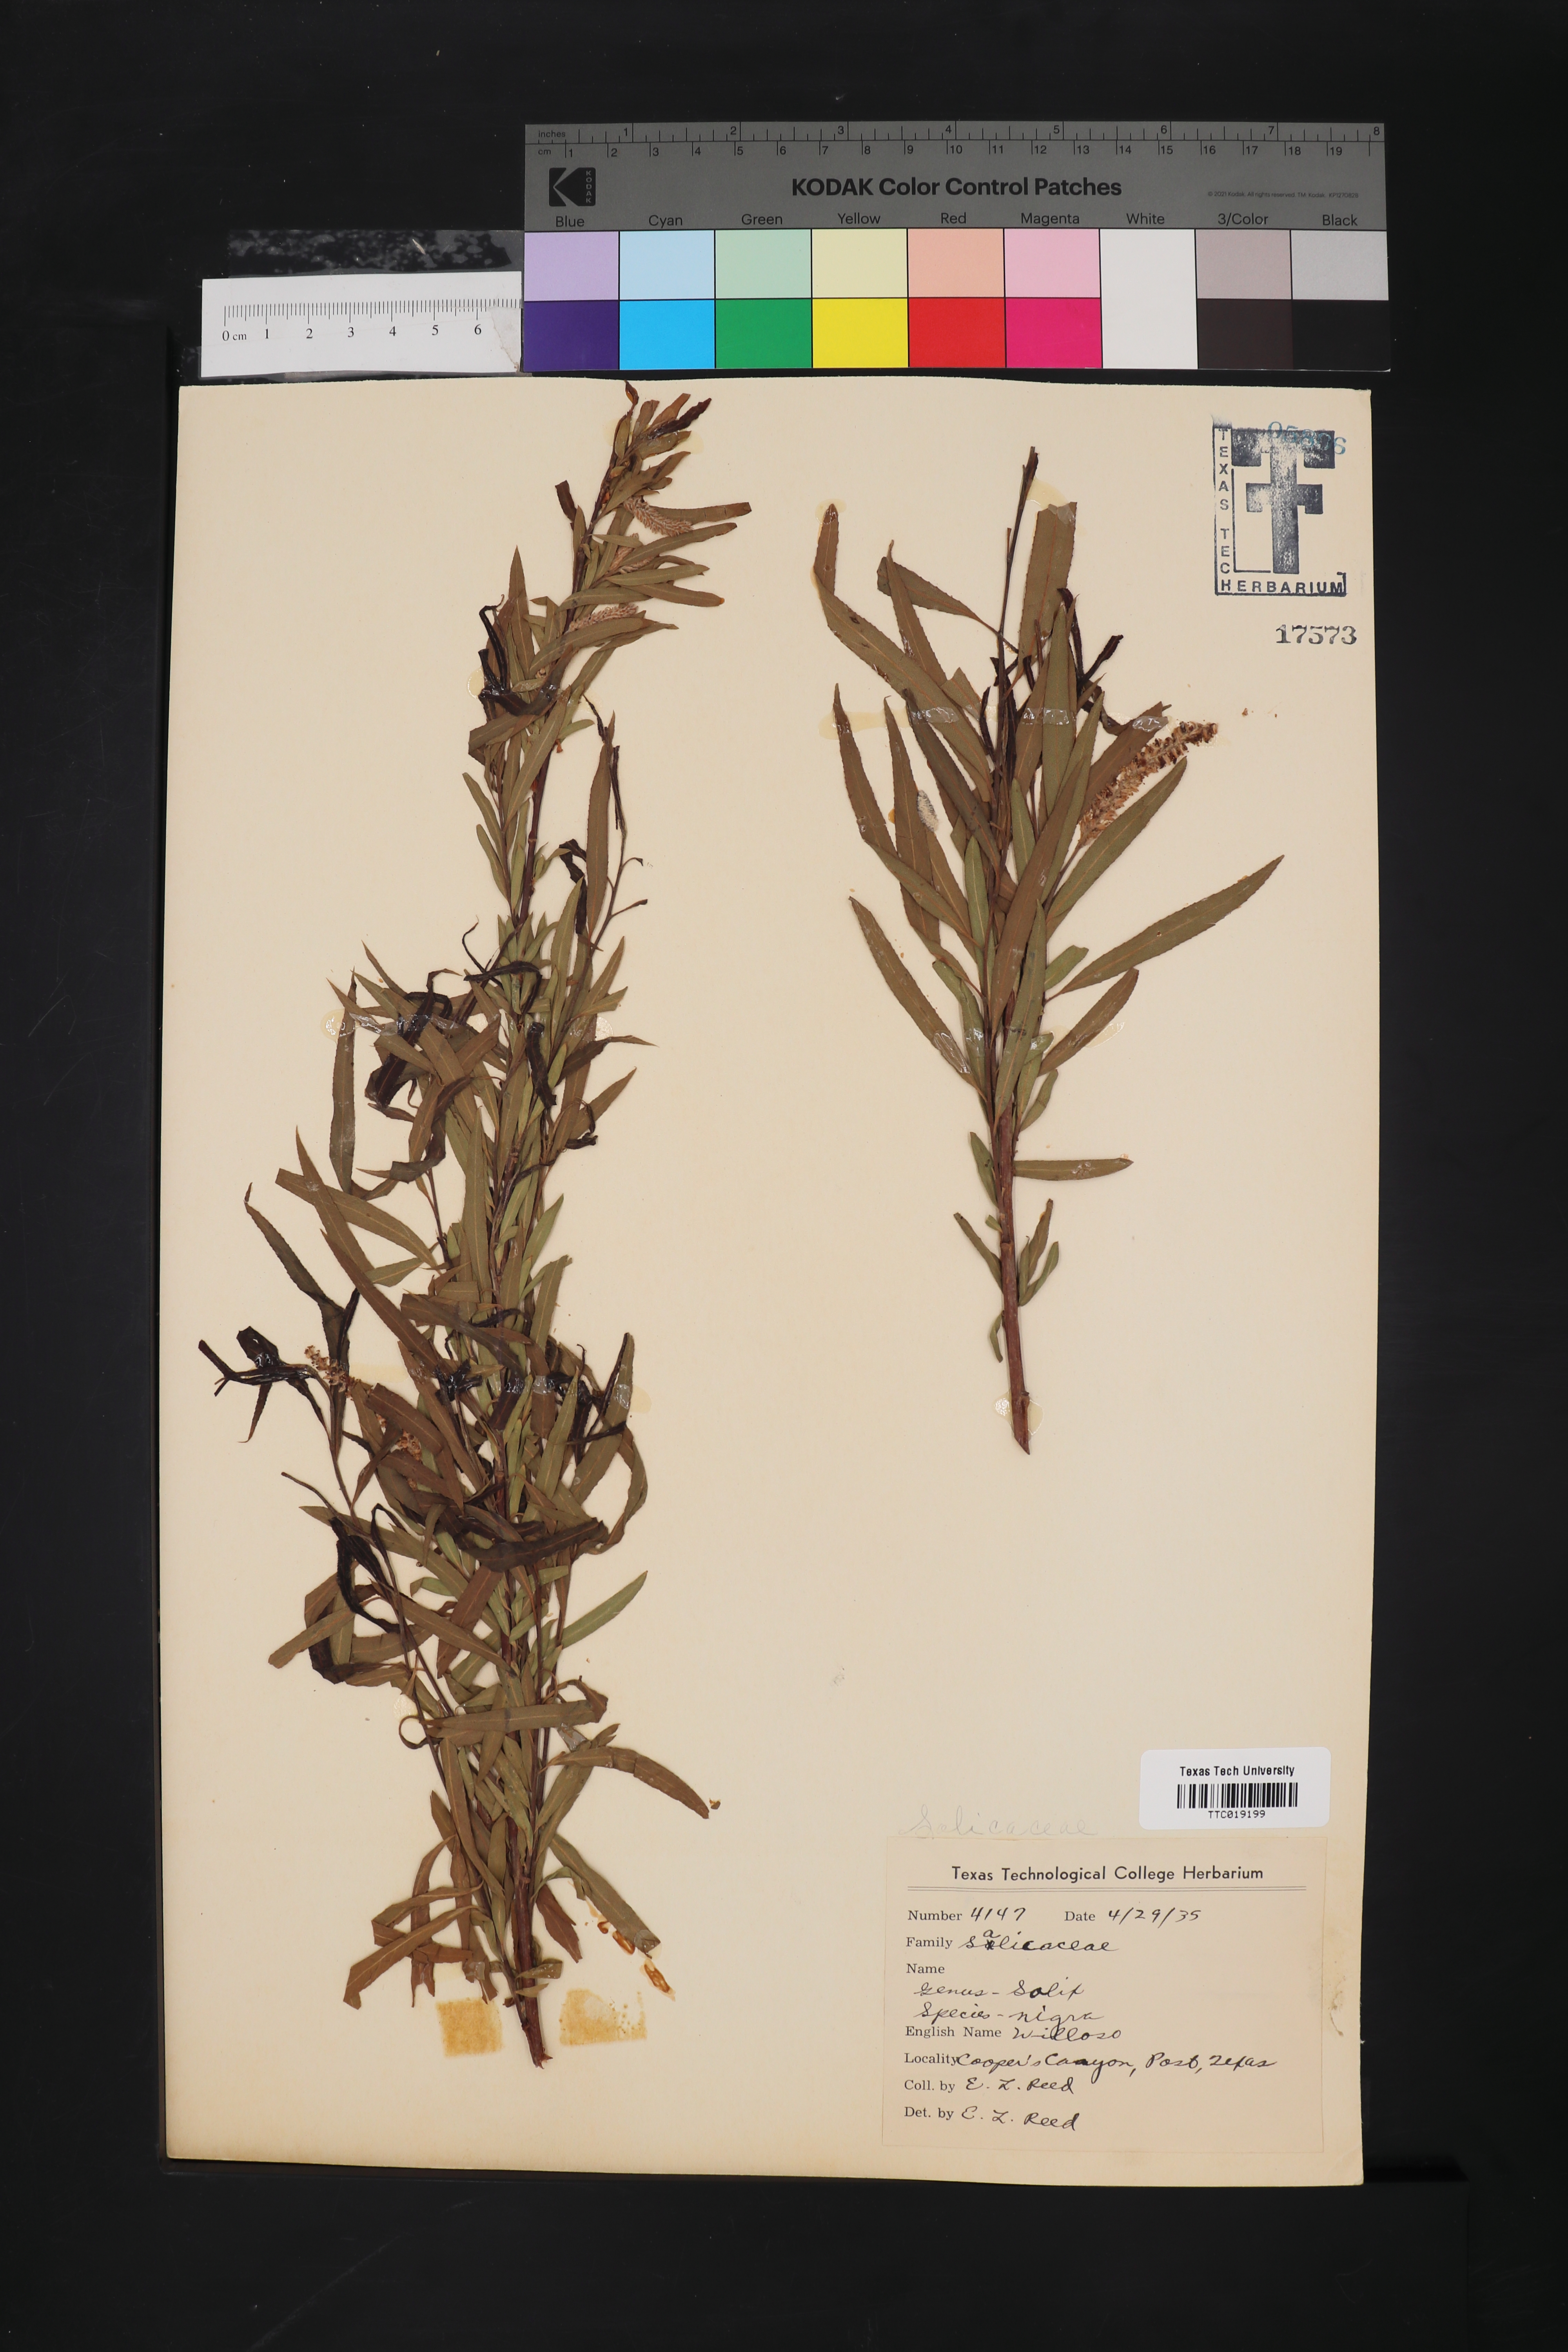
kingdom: Plantae
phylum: Tracheophyta
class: Magnoliopsida
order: Malpighiales
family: Salicaceae
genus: Salix
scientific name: Salix nigra
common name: Black willow
